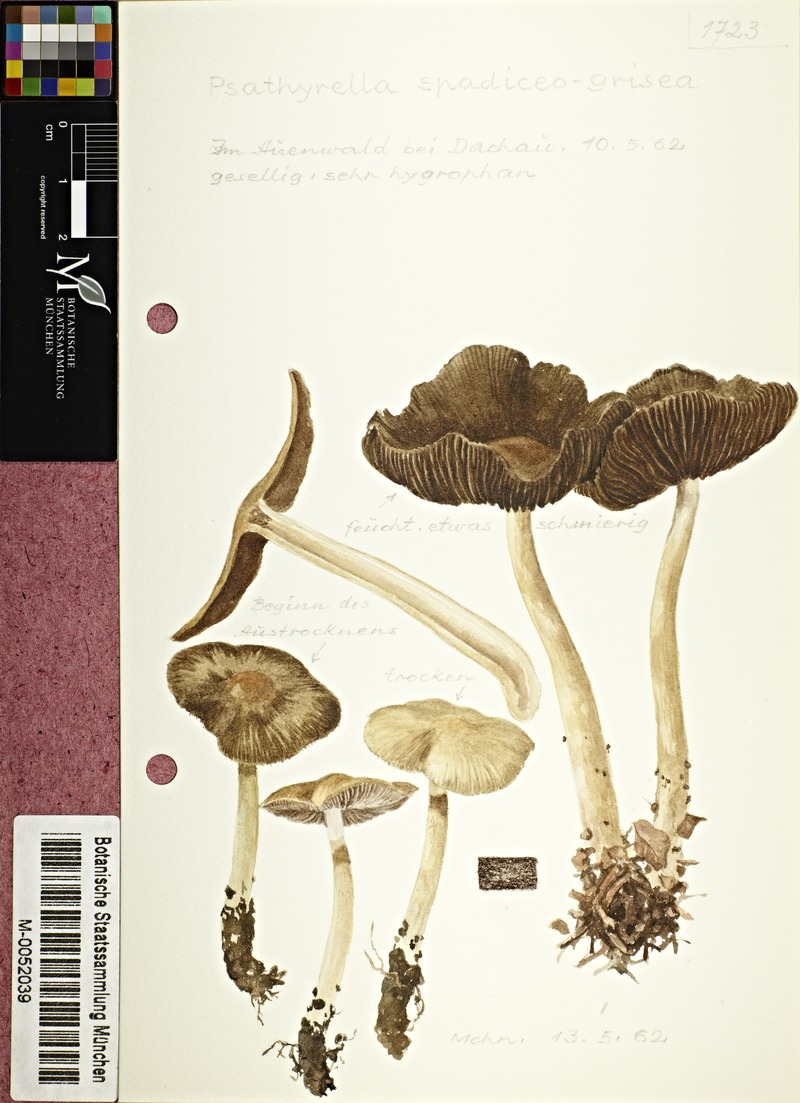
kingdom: Fungi
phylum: Basidiomycota
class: Agaricomycetes
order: Agaricales
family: Psathyrellaceae
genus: Psathyrella
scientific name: Psathyrella spadiceogrisea
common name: Spring brittlestem
